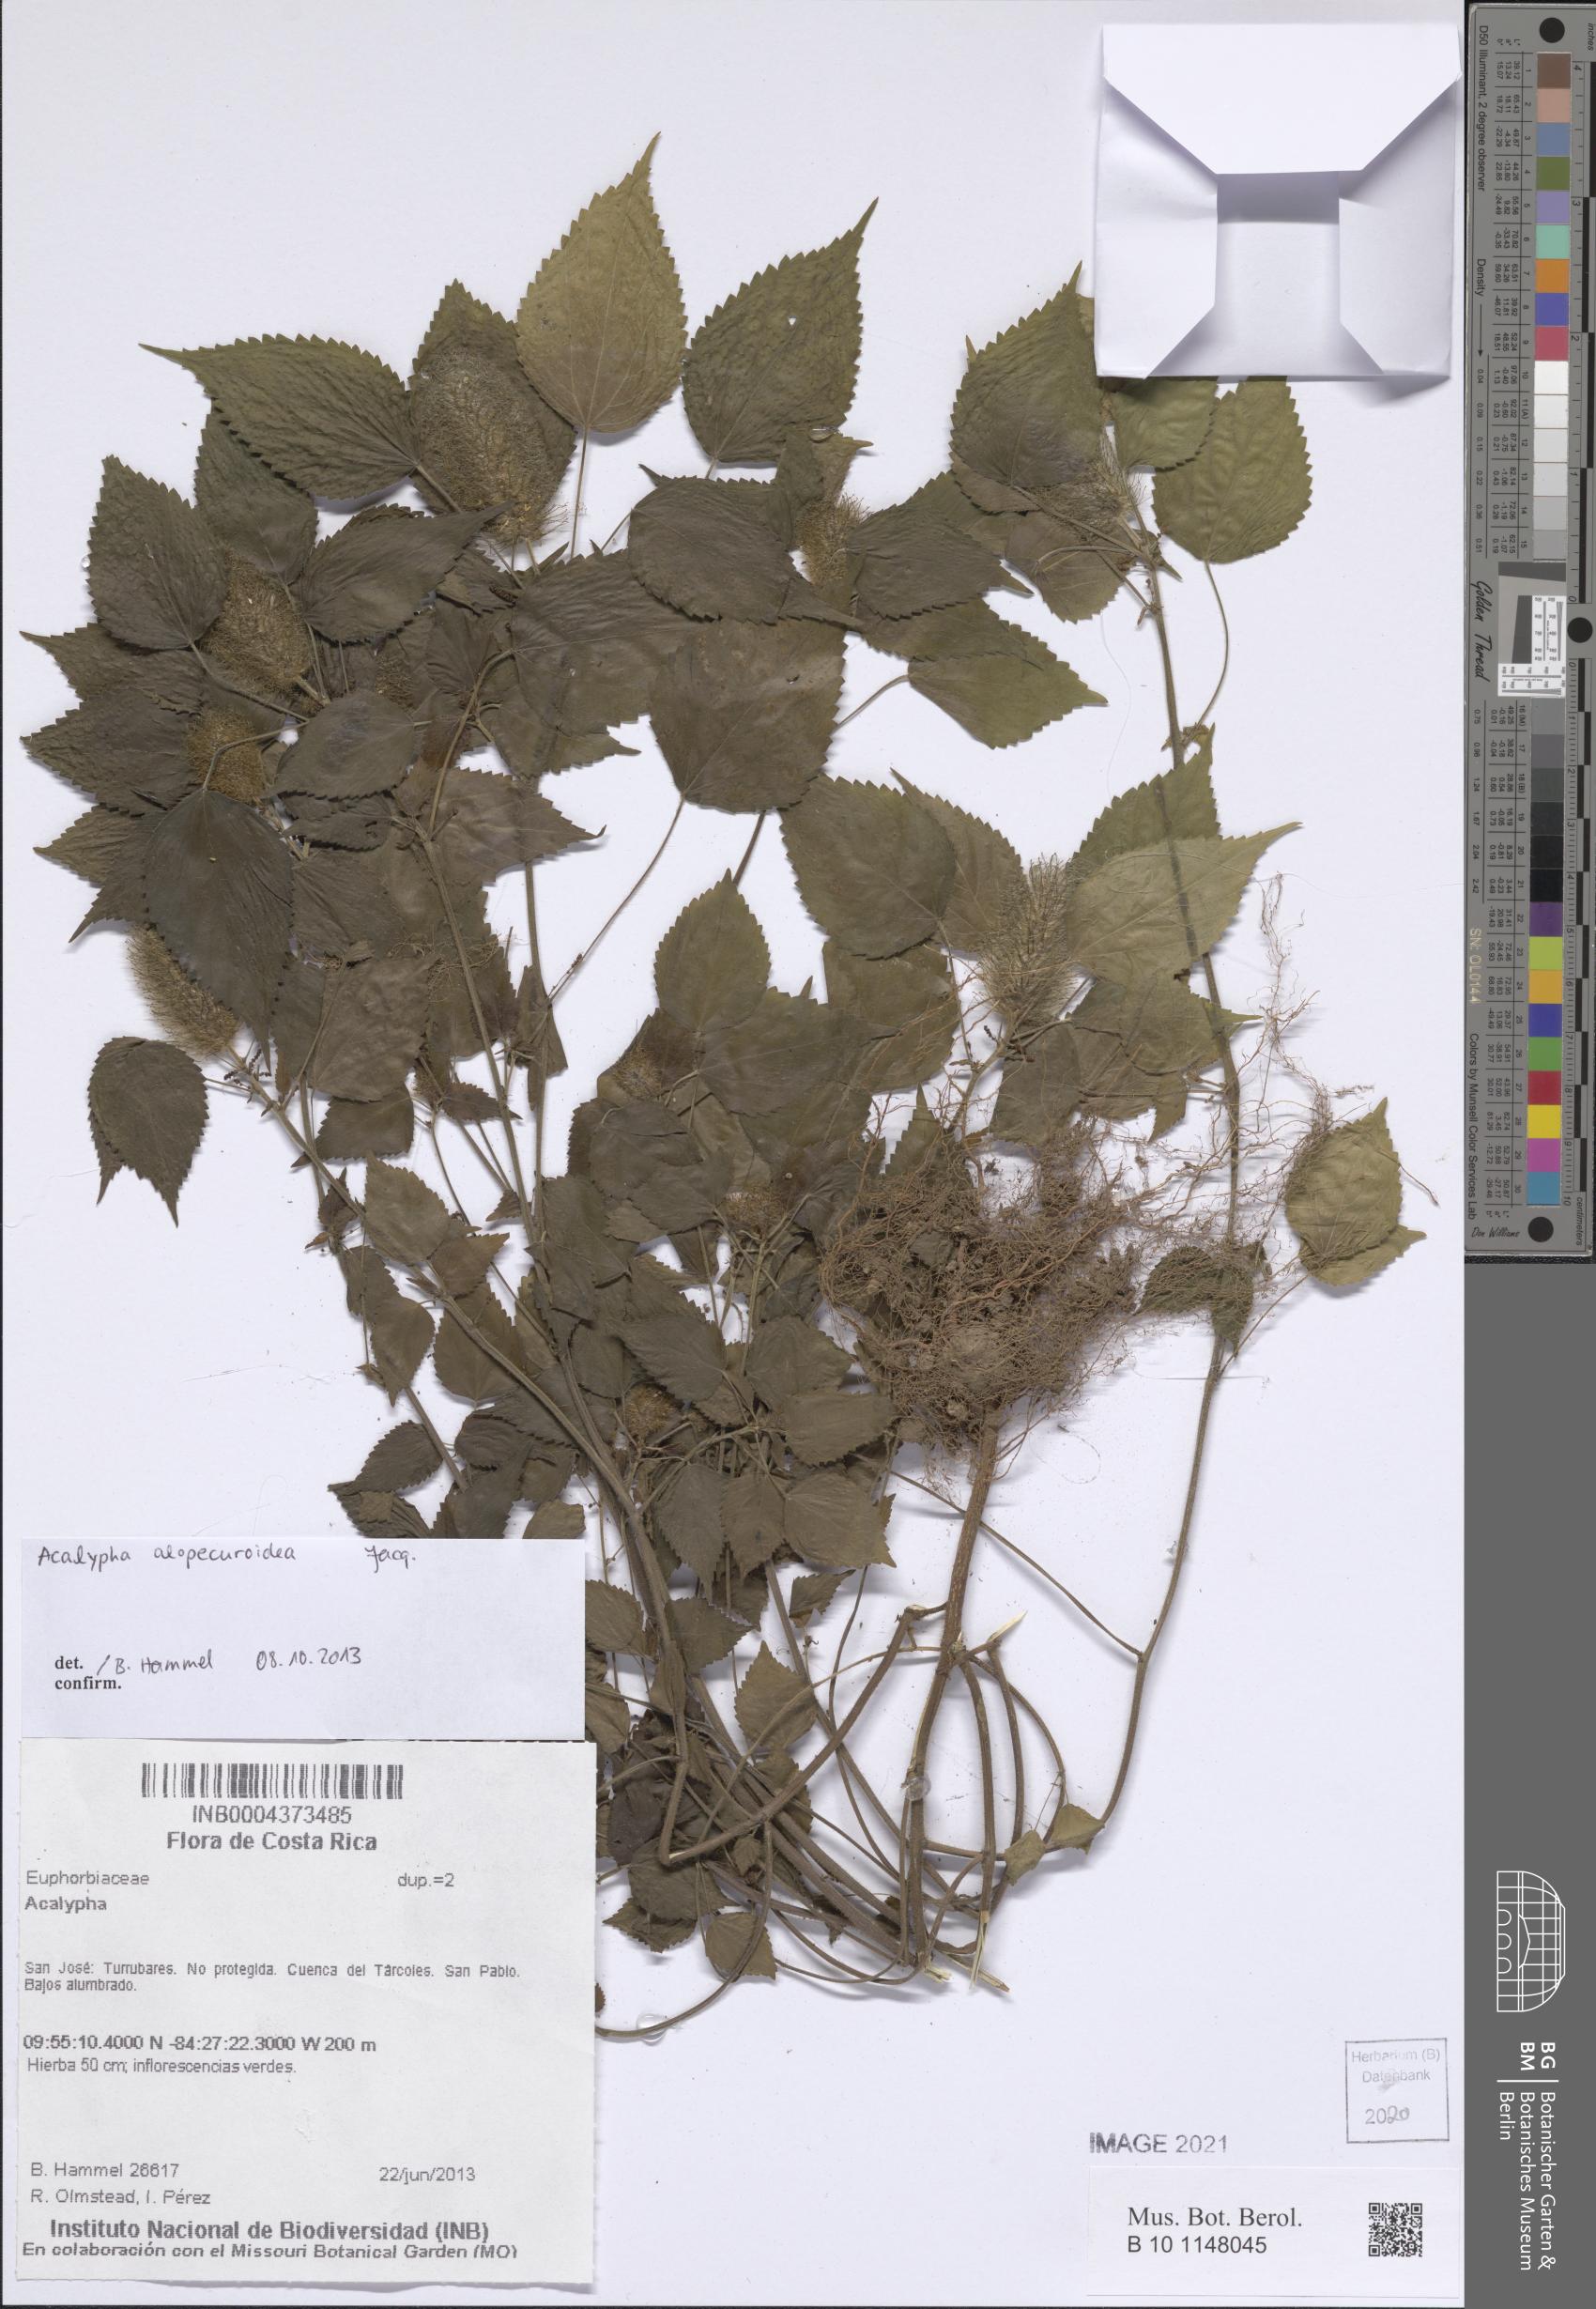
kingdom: Plantae
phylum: Tracheophyta
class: Magnoliopsida
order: Malpighiales
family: Euphorbiaceae
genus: Acalypha
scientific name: Acalypha alopecuroidea
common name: Foxtail copperleaf
